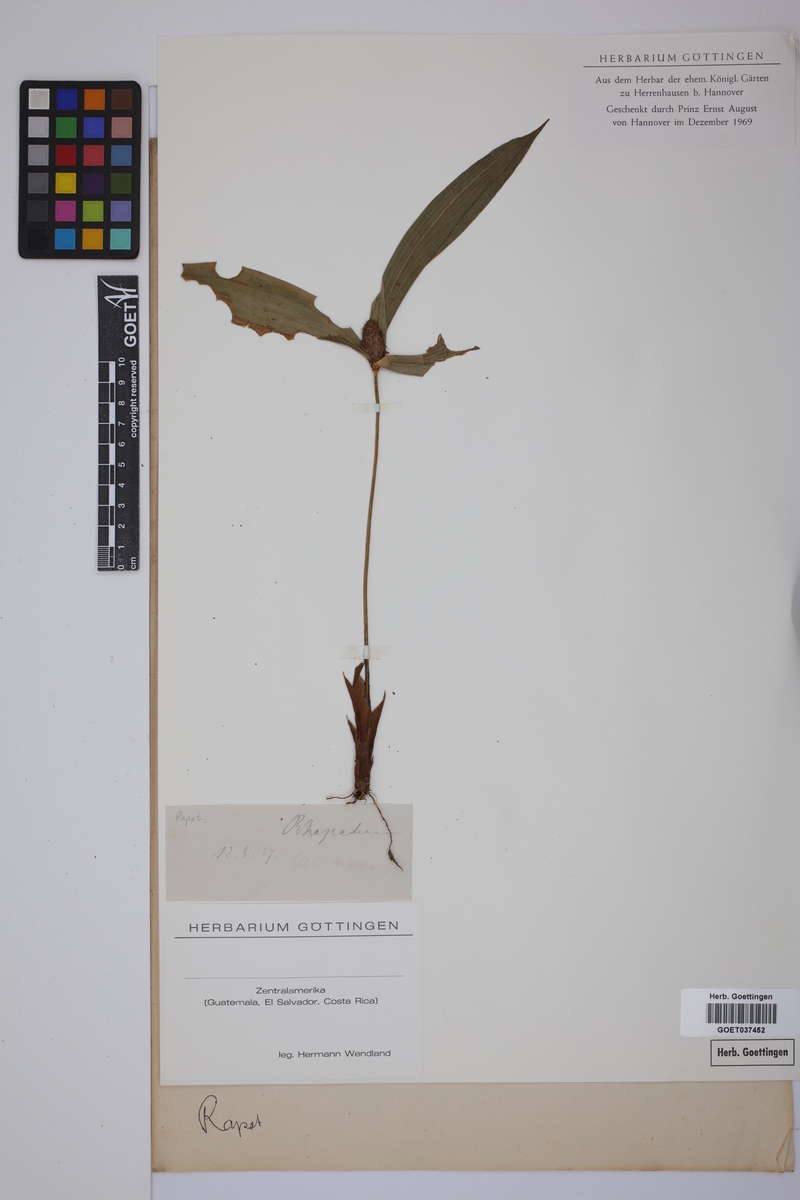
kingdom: Plantae
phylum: Tracheophyta
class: Liliopsida
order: Poales
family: Rapateaceae
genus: Rapatea
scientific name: Rapatea
